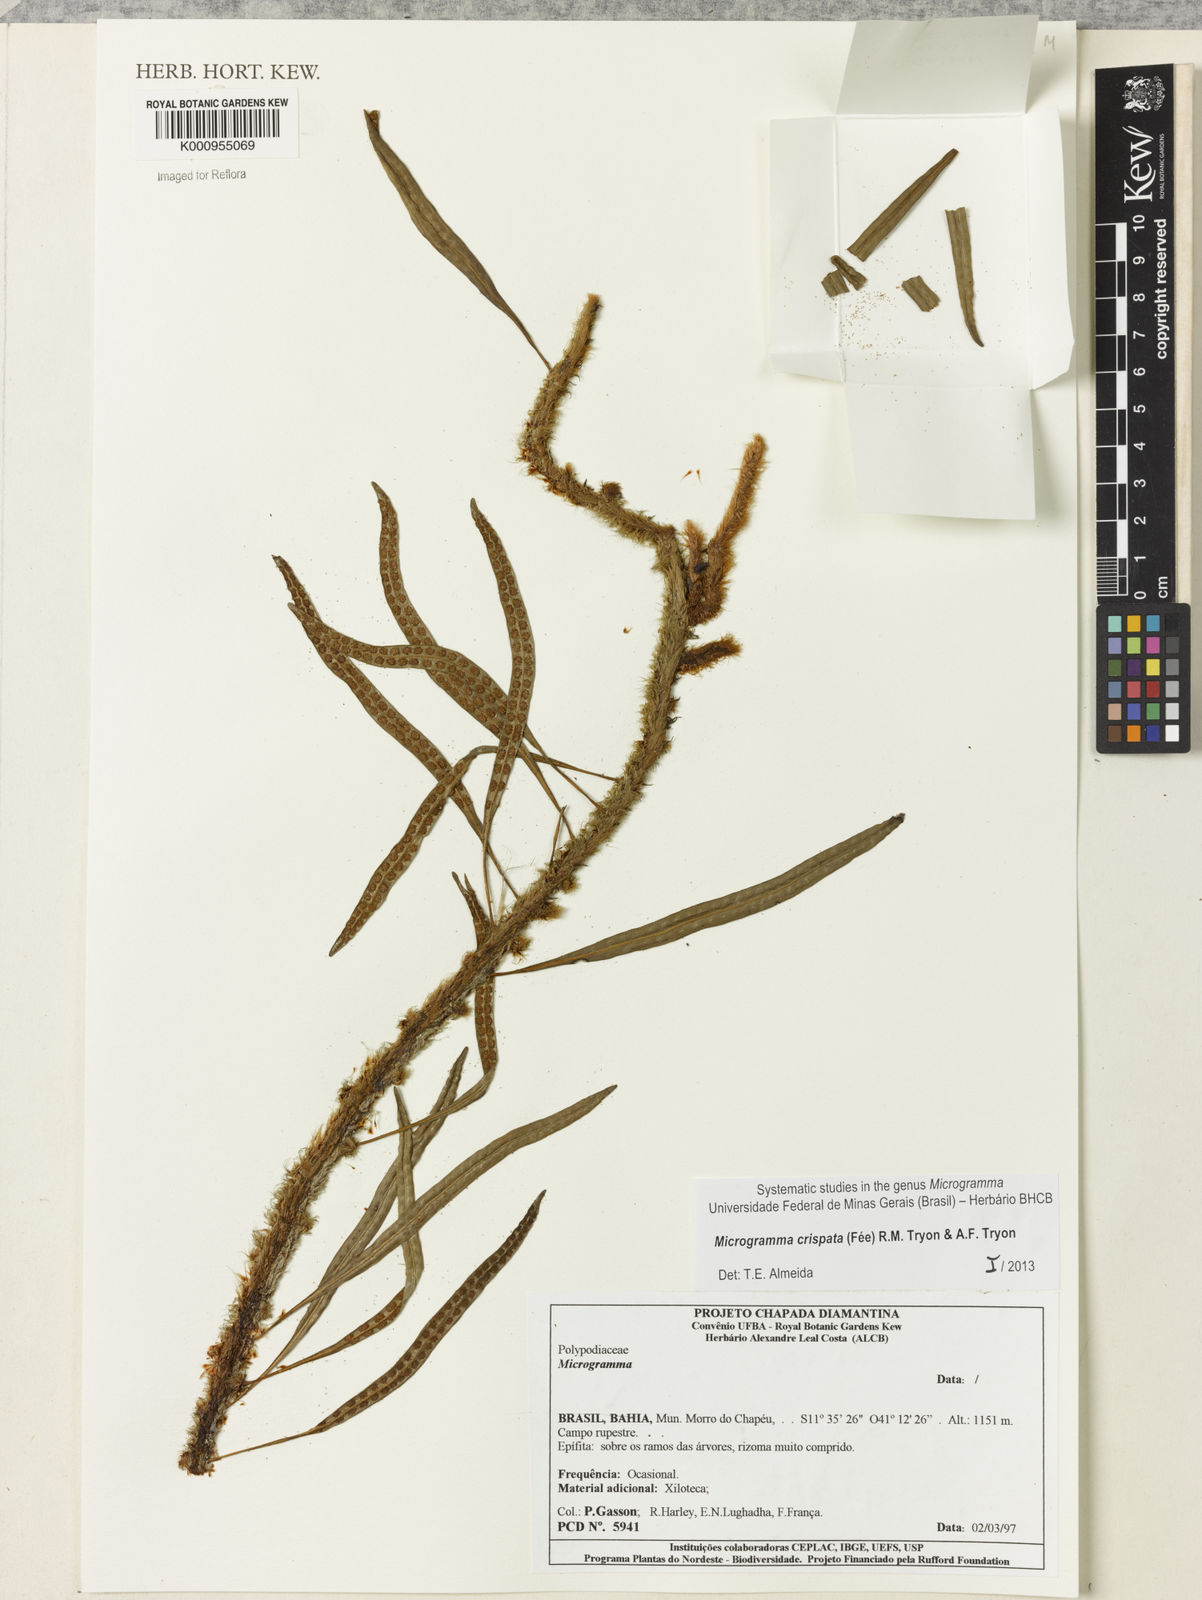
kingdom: Plantae
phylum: Tracheophyta
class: Polypodiopsida
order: Polypodiales
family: Polypodiaceae
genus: Microgramma
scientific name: Microgramma
